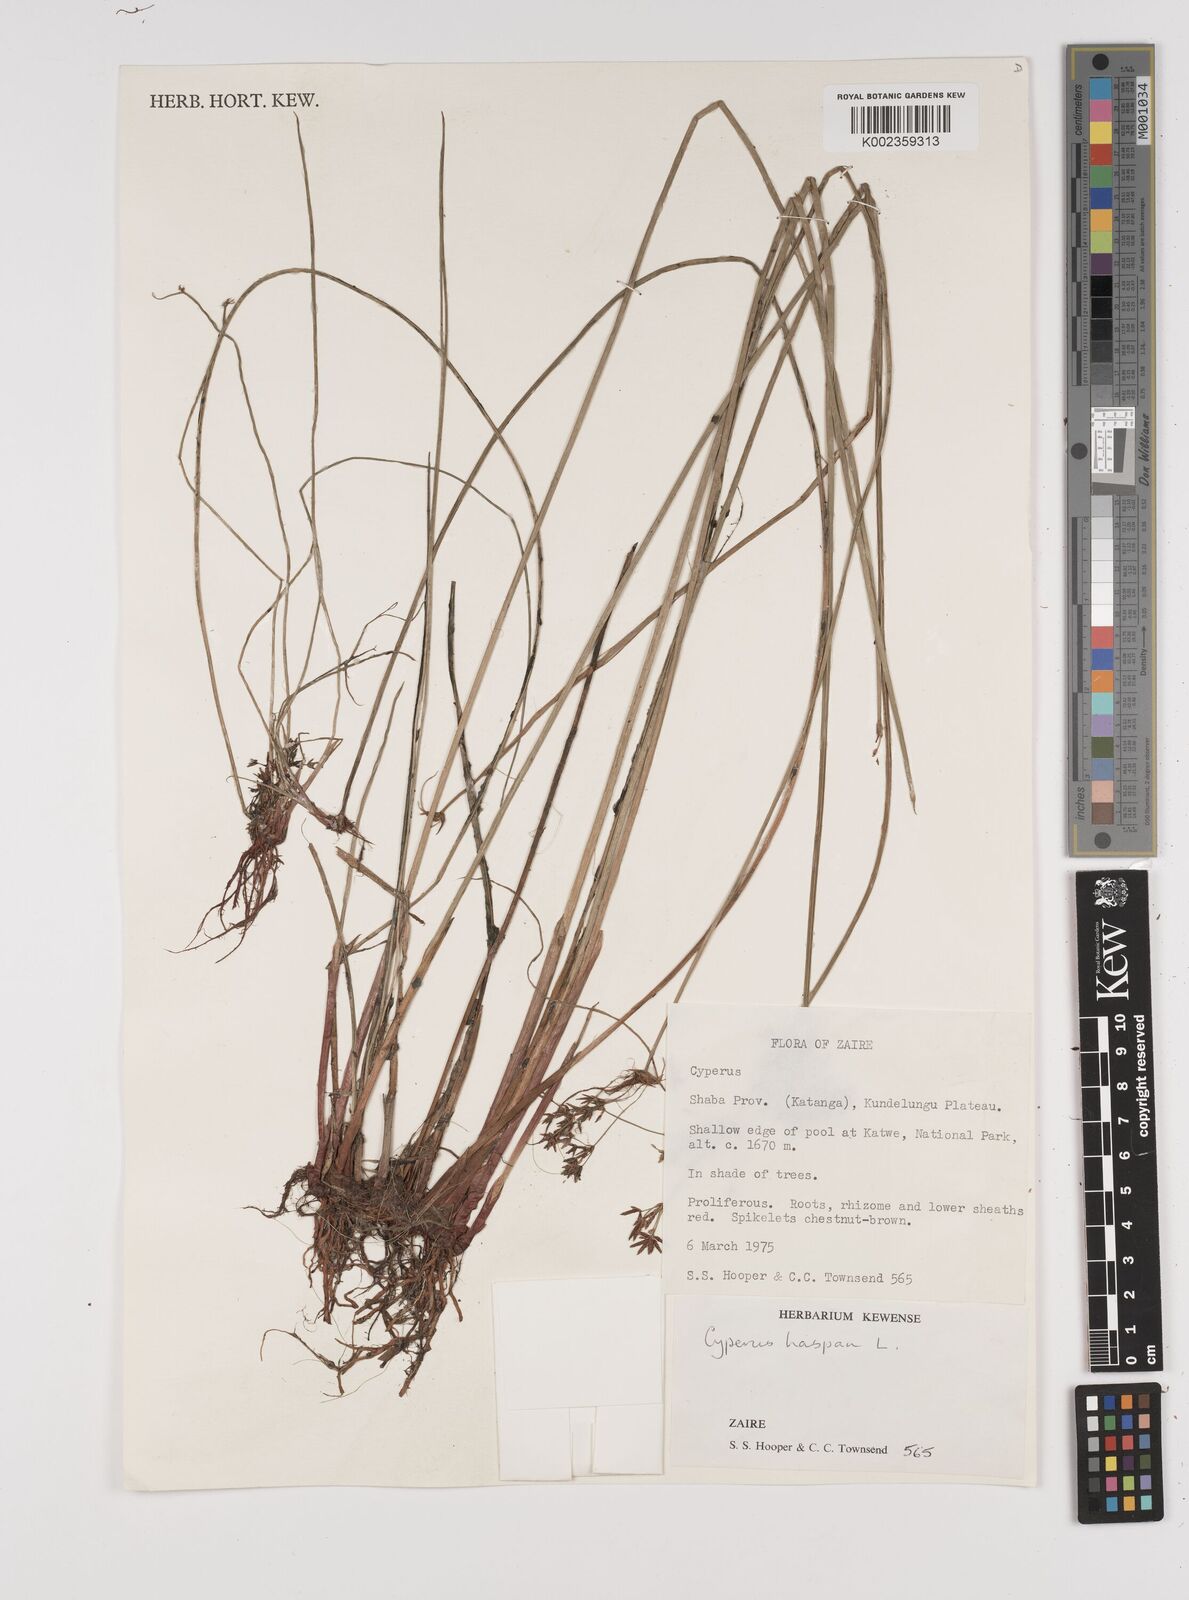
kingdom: Plantae
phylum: Tracheophyta
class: Liliopsida
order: Poales
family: Cyperaceae
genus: Cyperus
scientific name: Cyperus haspan
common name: Haspan flatsedge
